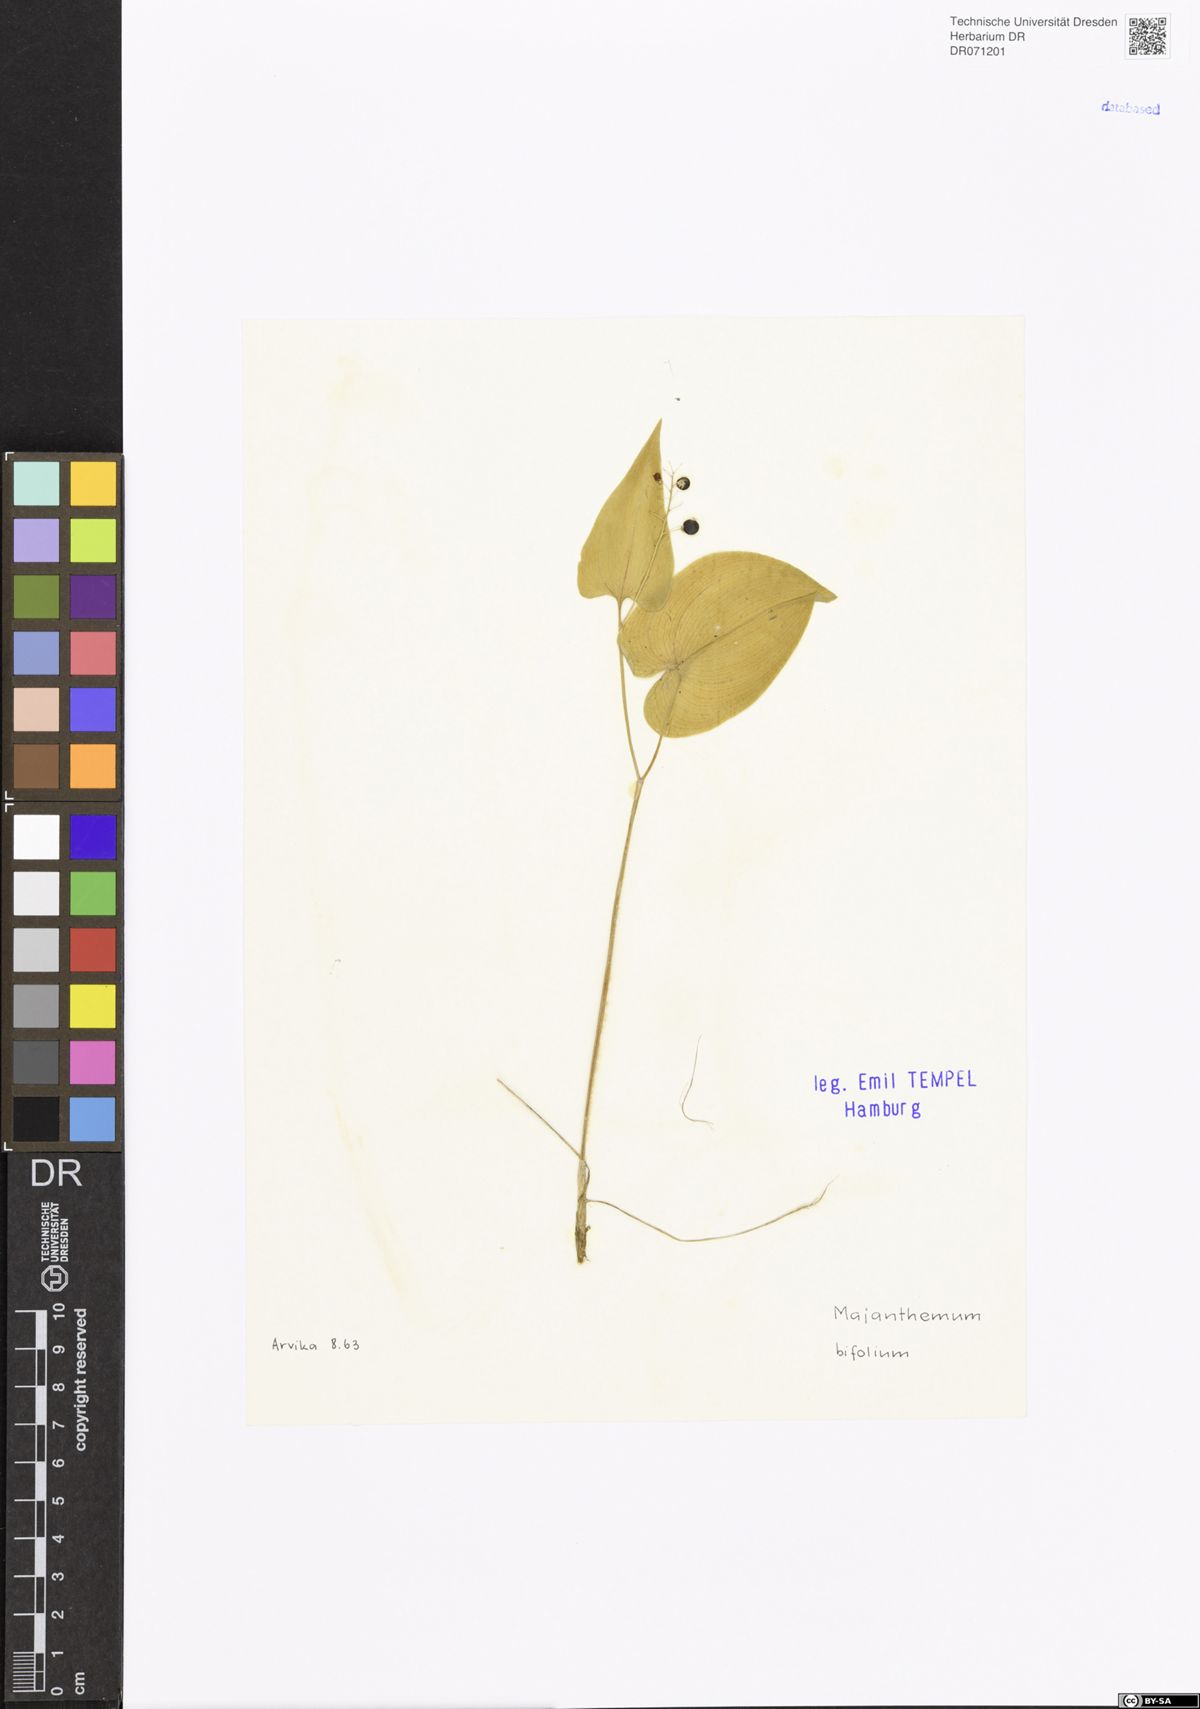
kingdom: Plantae
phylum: Tracheophyta
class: Liliopsida
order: Asparagales
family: Asparagaceae
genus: Maianthemum
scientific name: Maianthemum bifolium
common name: May lily
